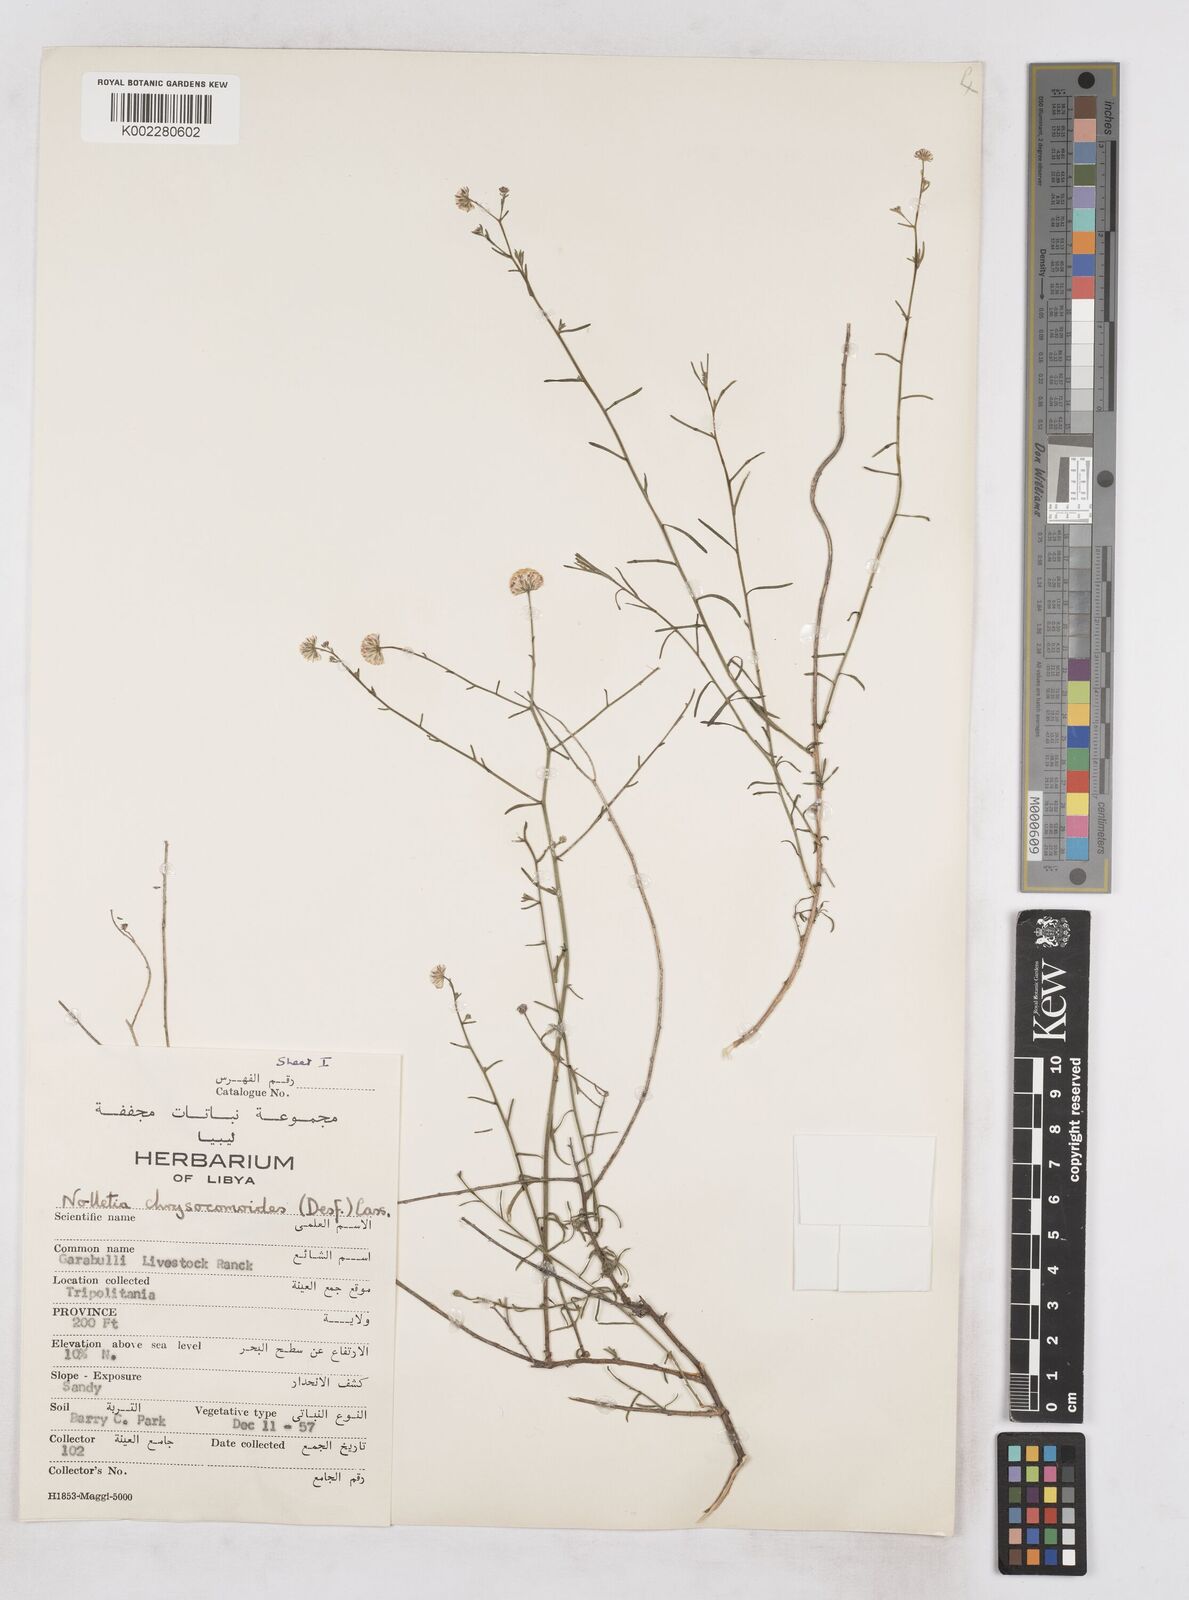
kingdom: Plantae
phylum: Tracheophyta
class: Magnoliopsida
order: Asterales
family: Asteraceae
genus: Nolletia
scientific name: Nolletia chrysocomoides
